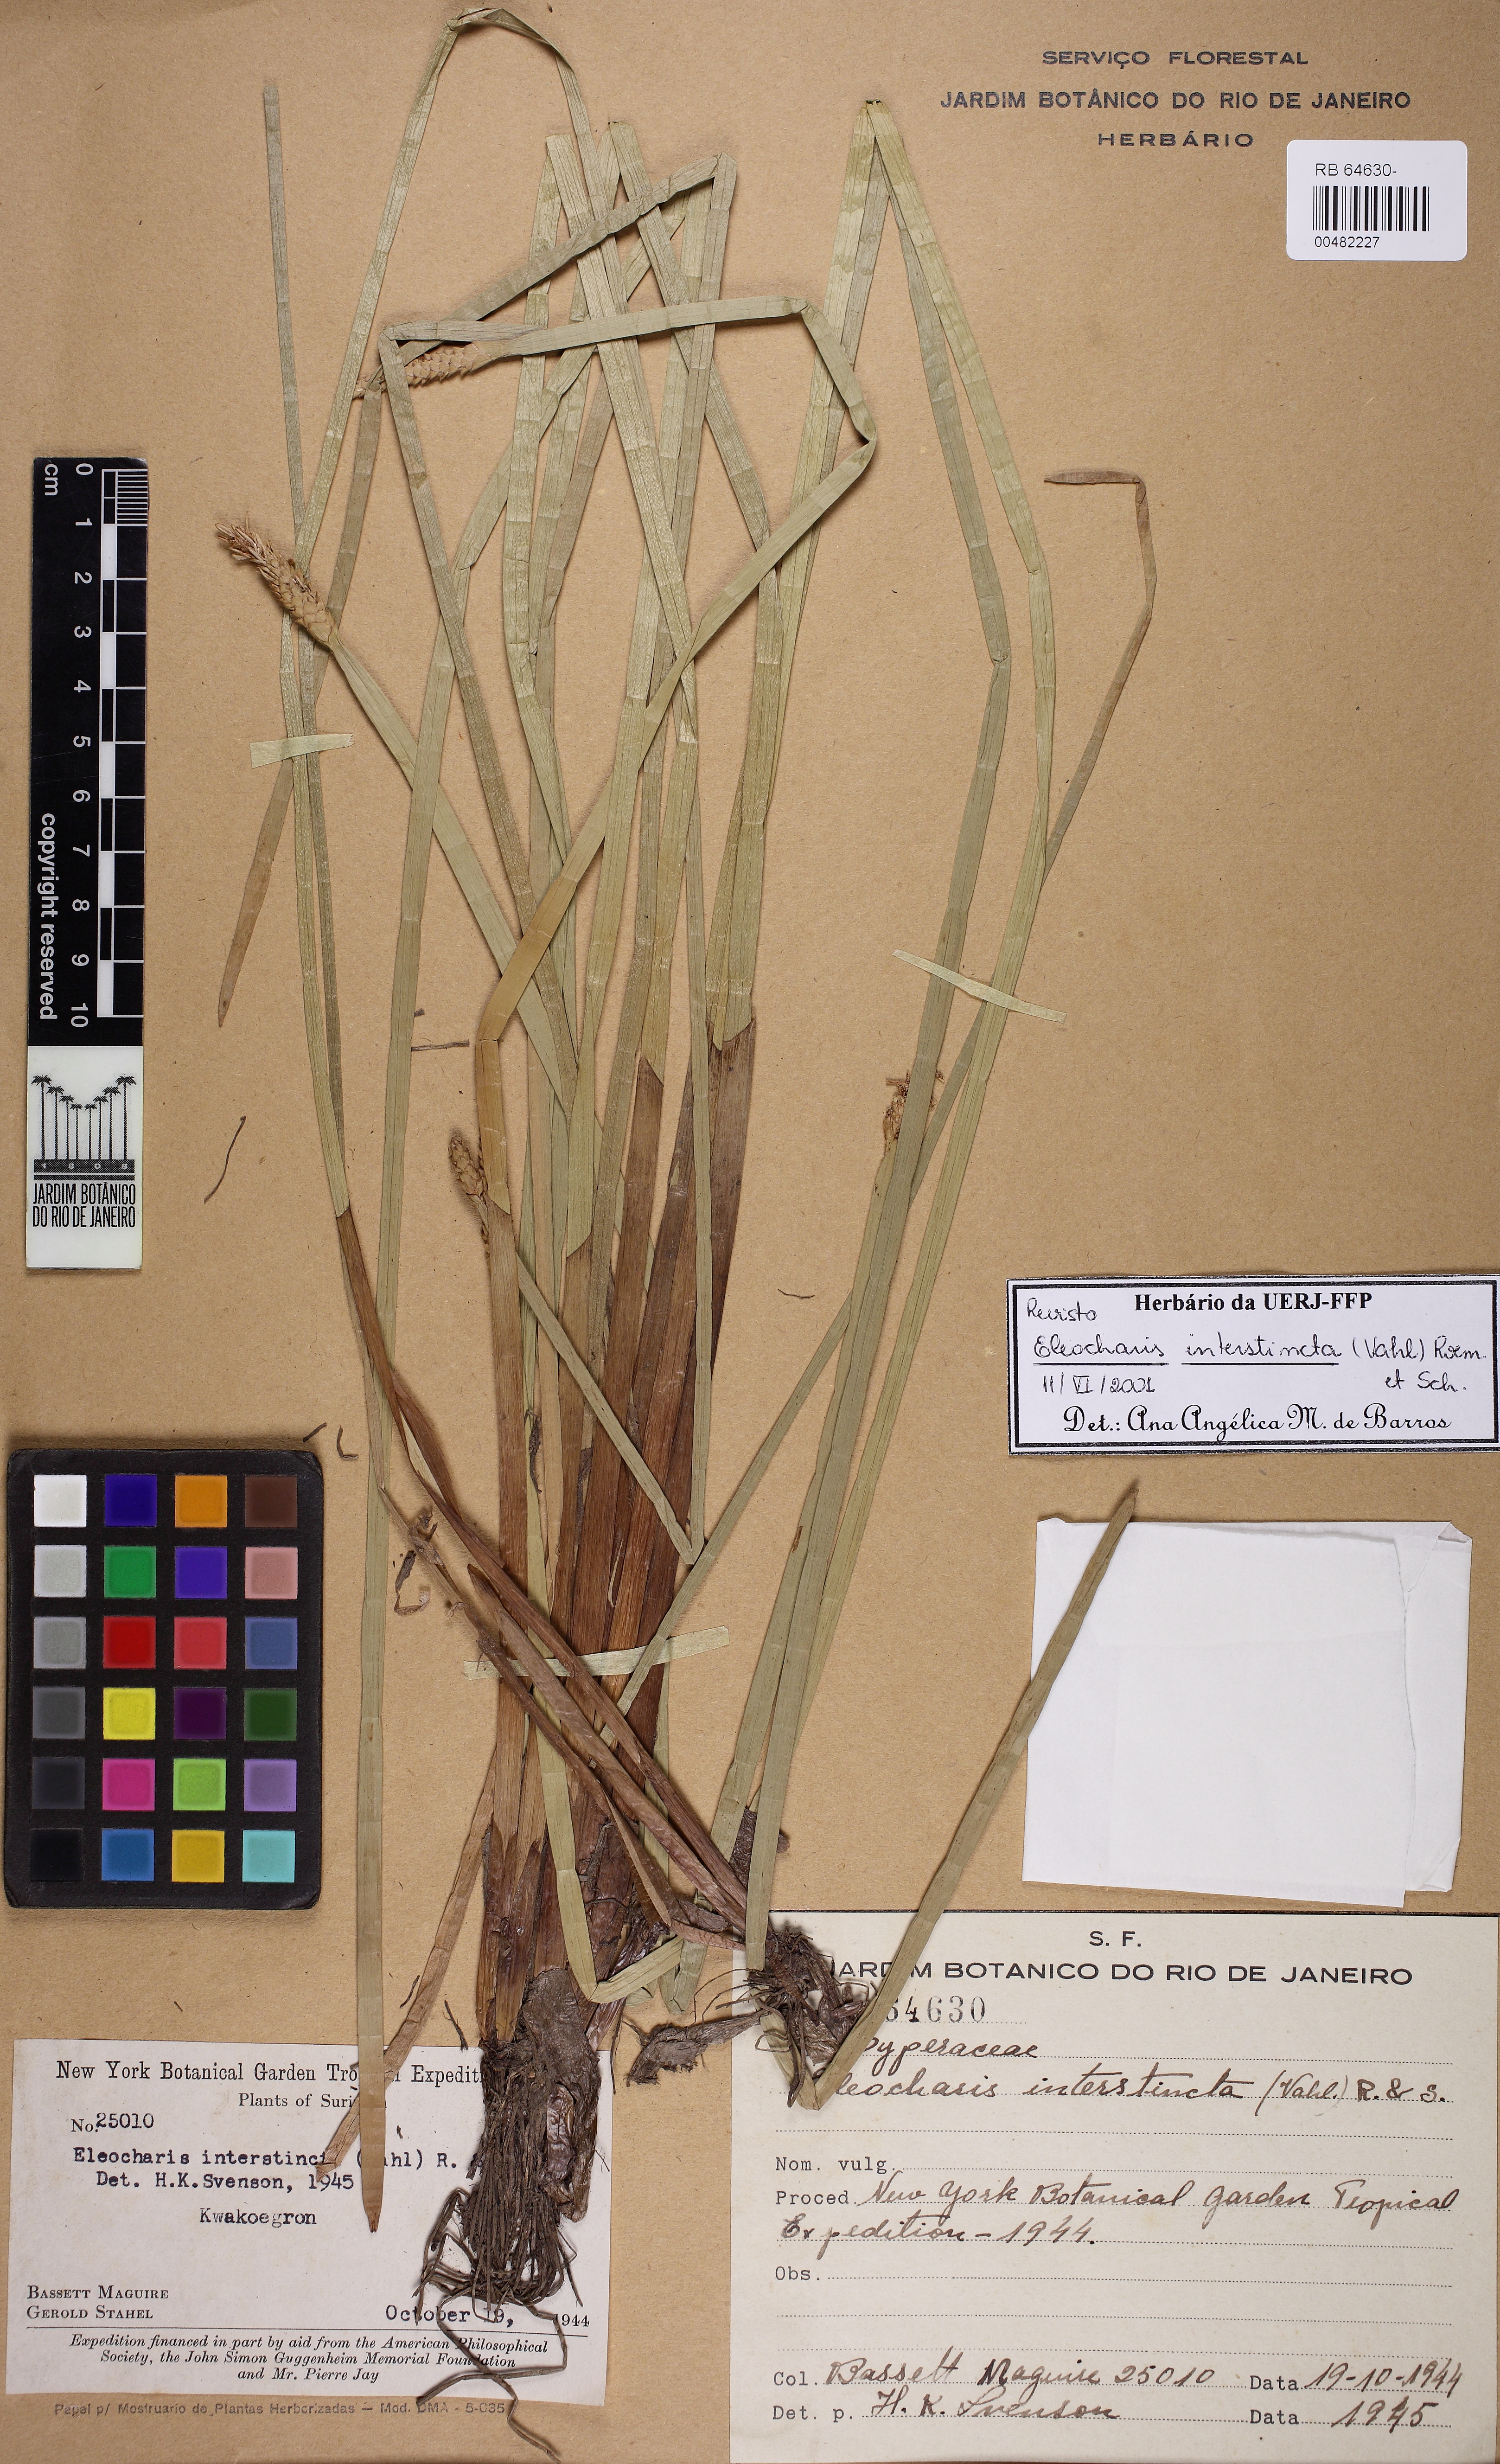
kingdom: Plantae
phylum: Tracheophyta
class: Liliopsida
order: Poales
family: Cyperaceae
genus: Eleocharis
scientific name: Eleocharis interstincta
